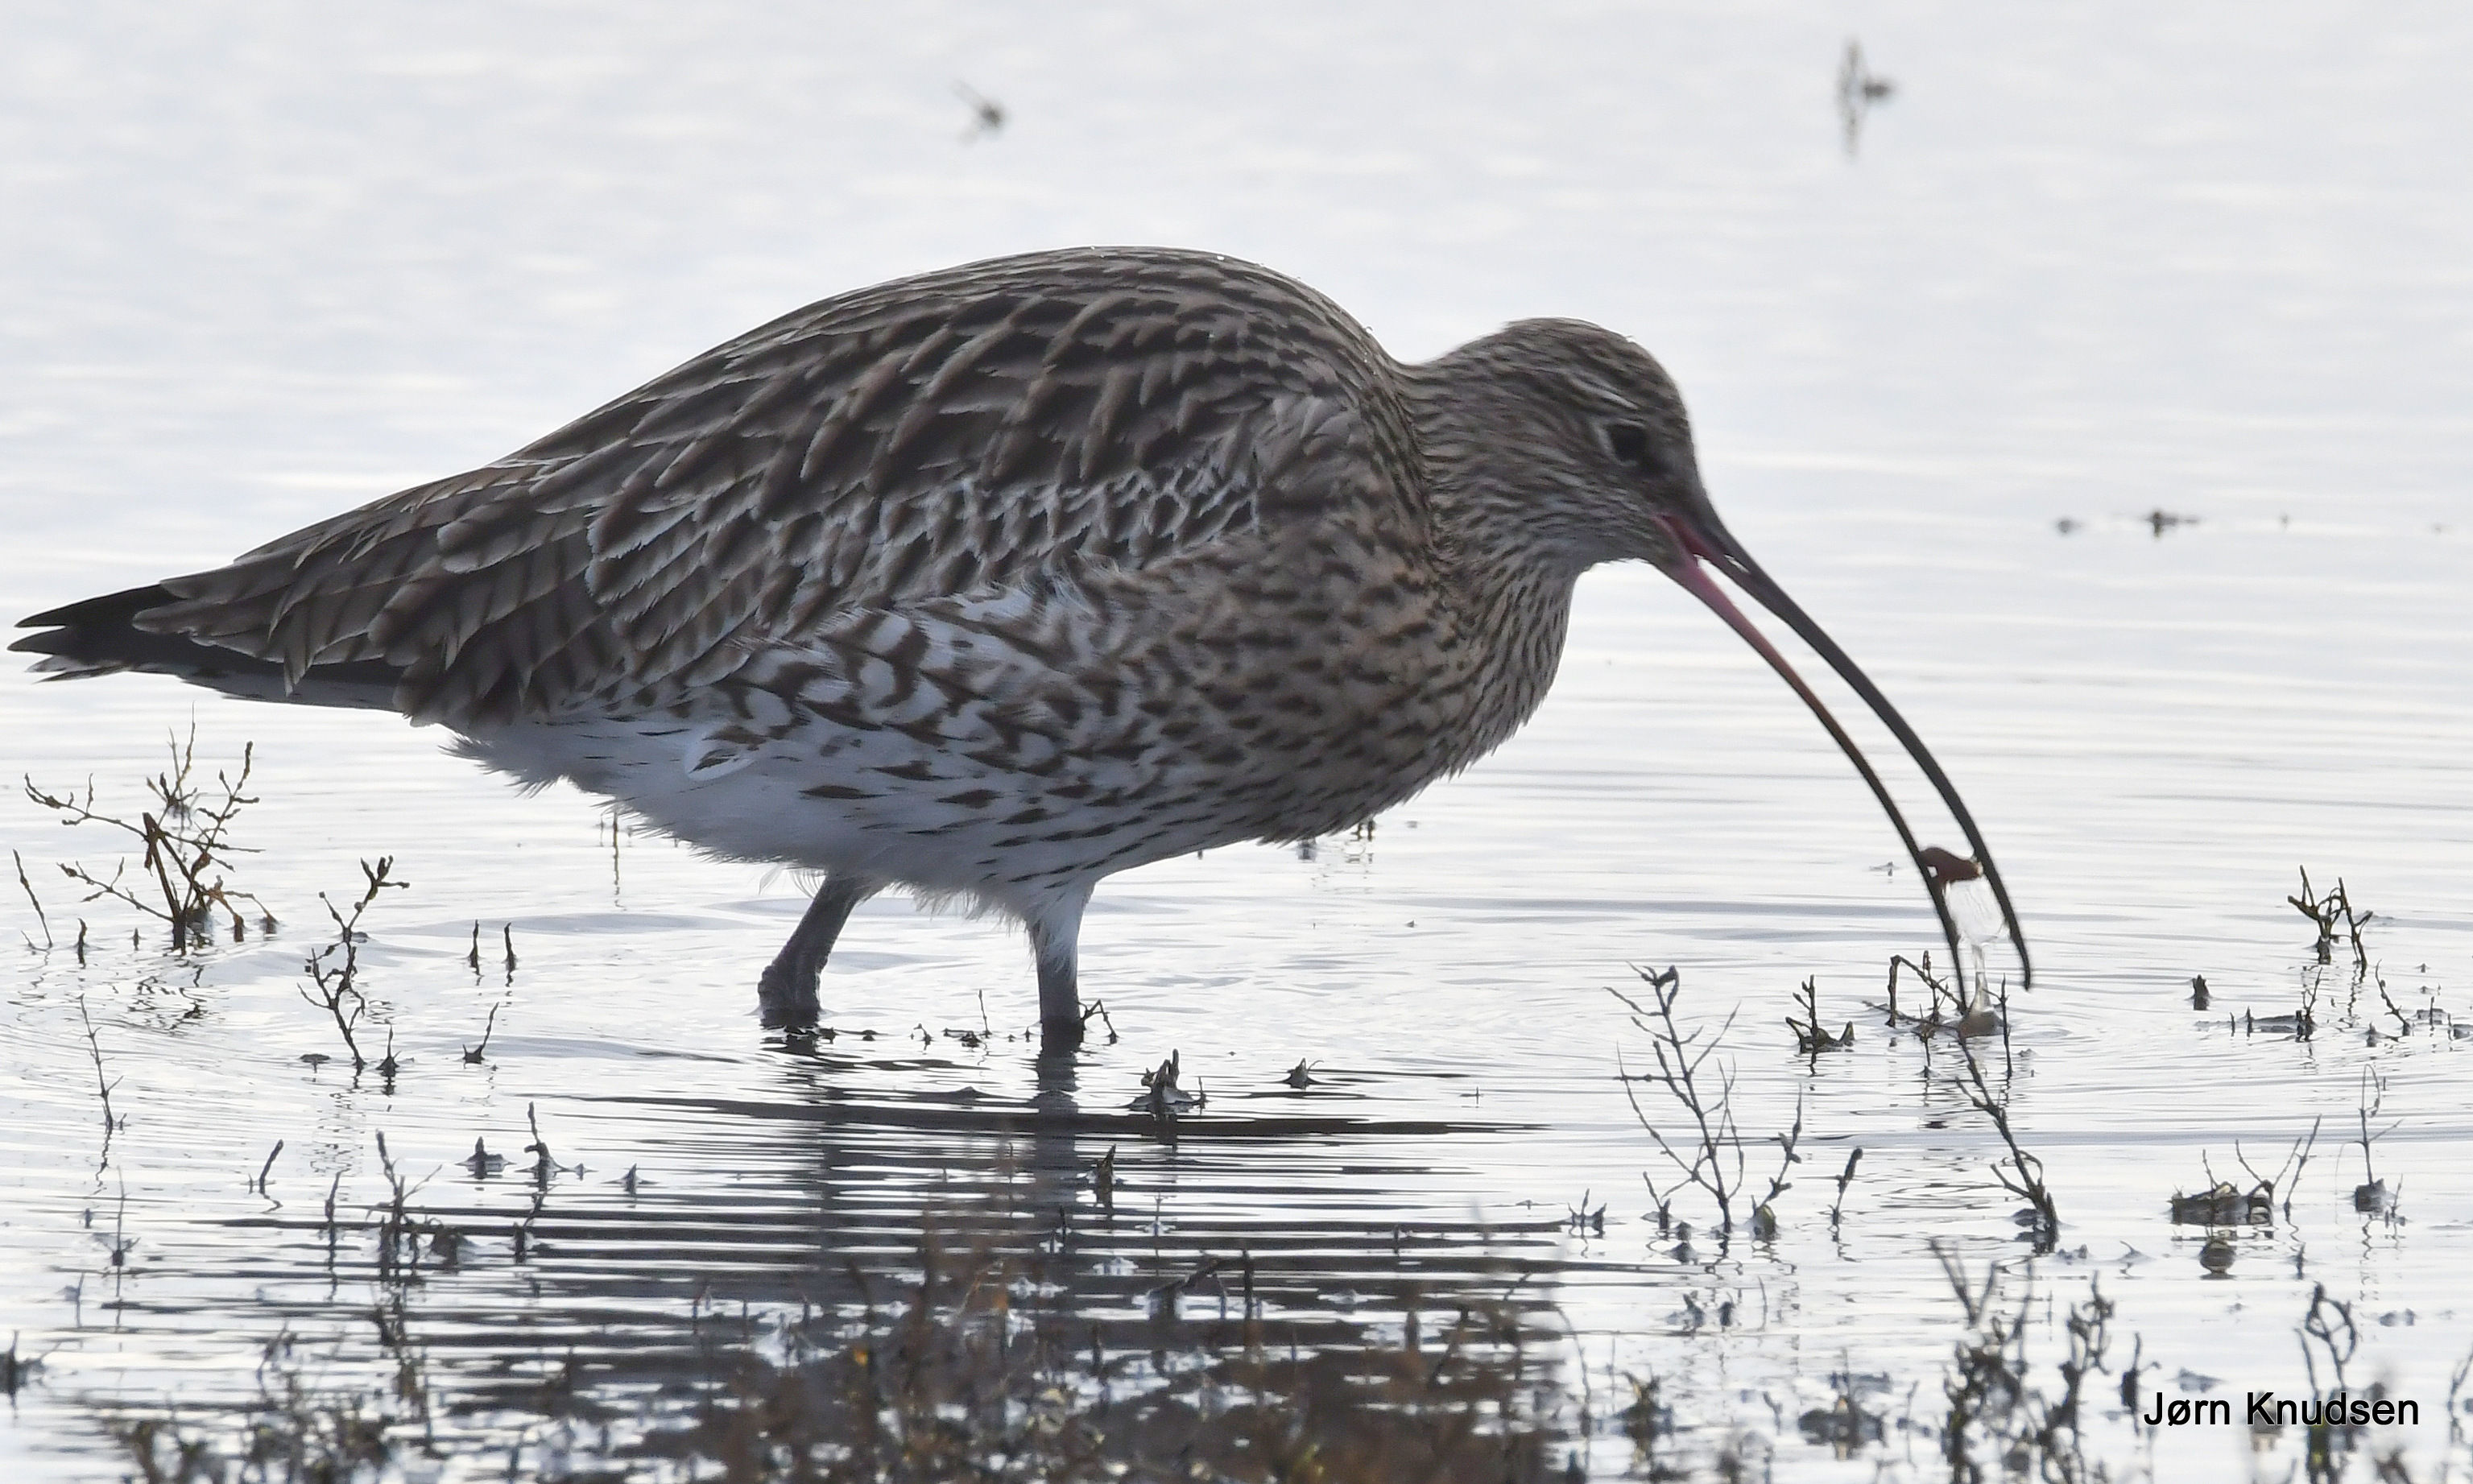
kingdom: Animalia
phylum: Chordata
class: Aves
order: Charadriiformes
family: Scolopacidae
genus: Numenius
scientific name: Numenius arquata
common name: Storspove
